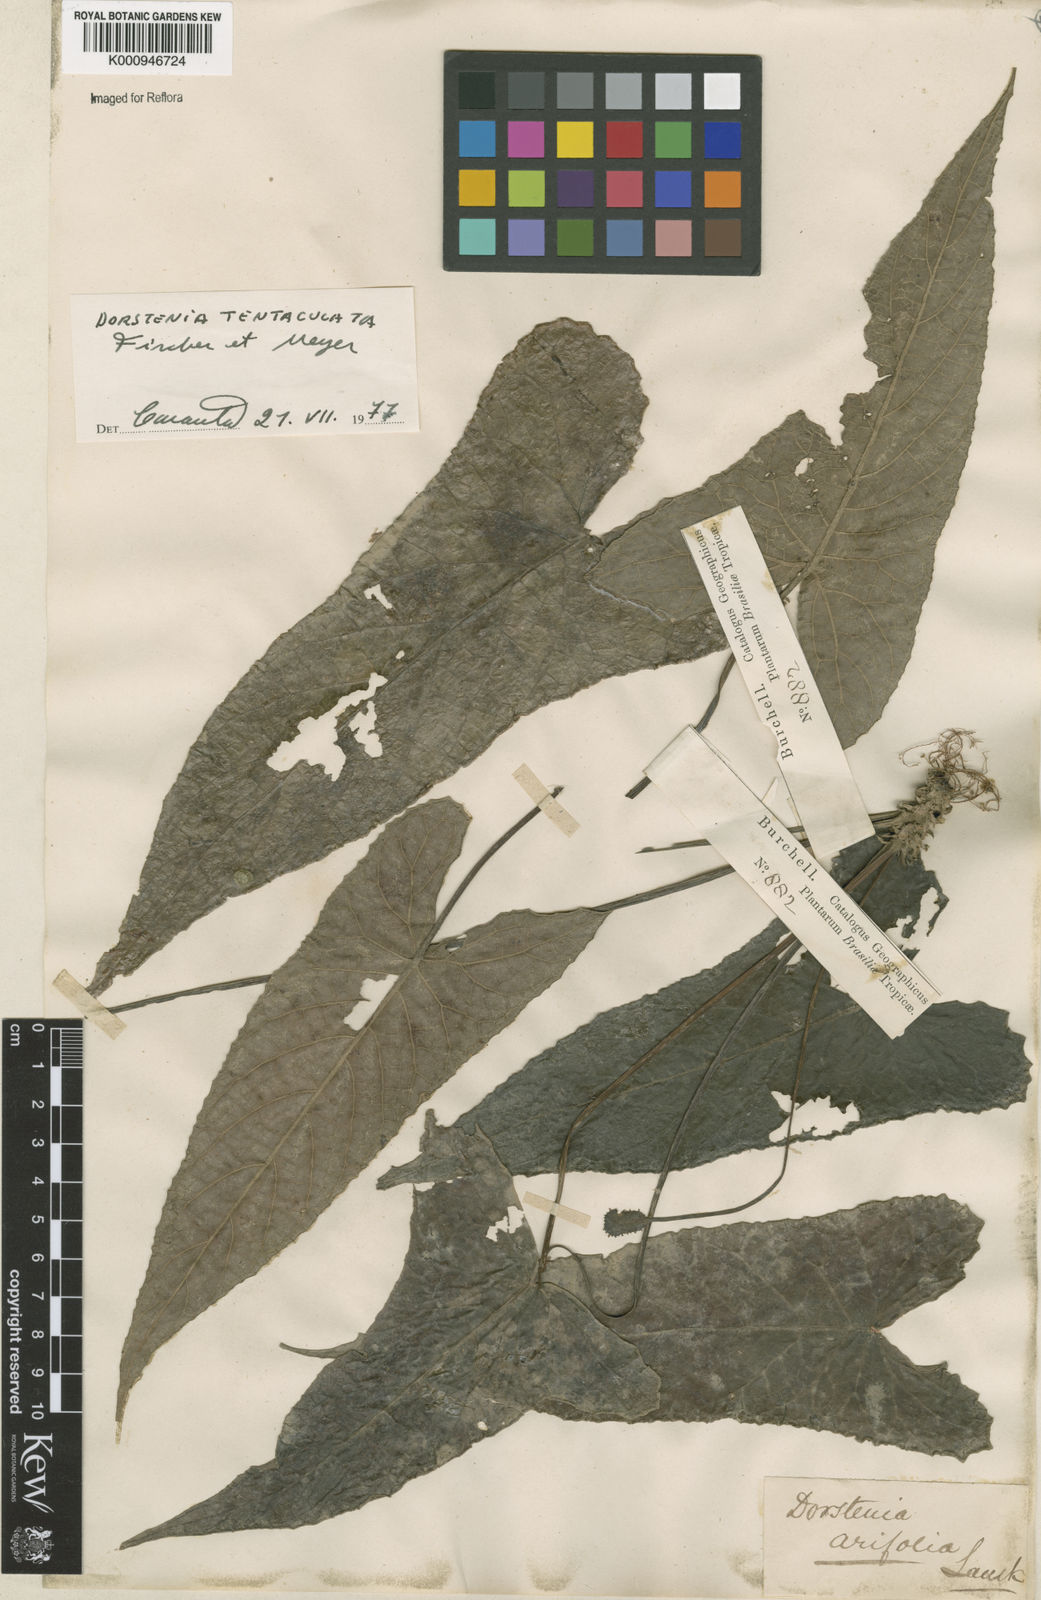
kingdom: Plantae
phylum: Tracheophyta
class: Magnoliopsida
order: Rosales
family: Moraceae
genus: Dorstenia
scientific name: Dorstenia tentaculata
